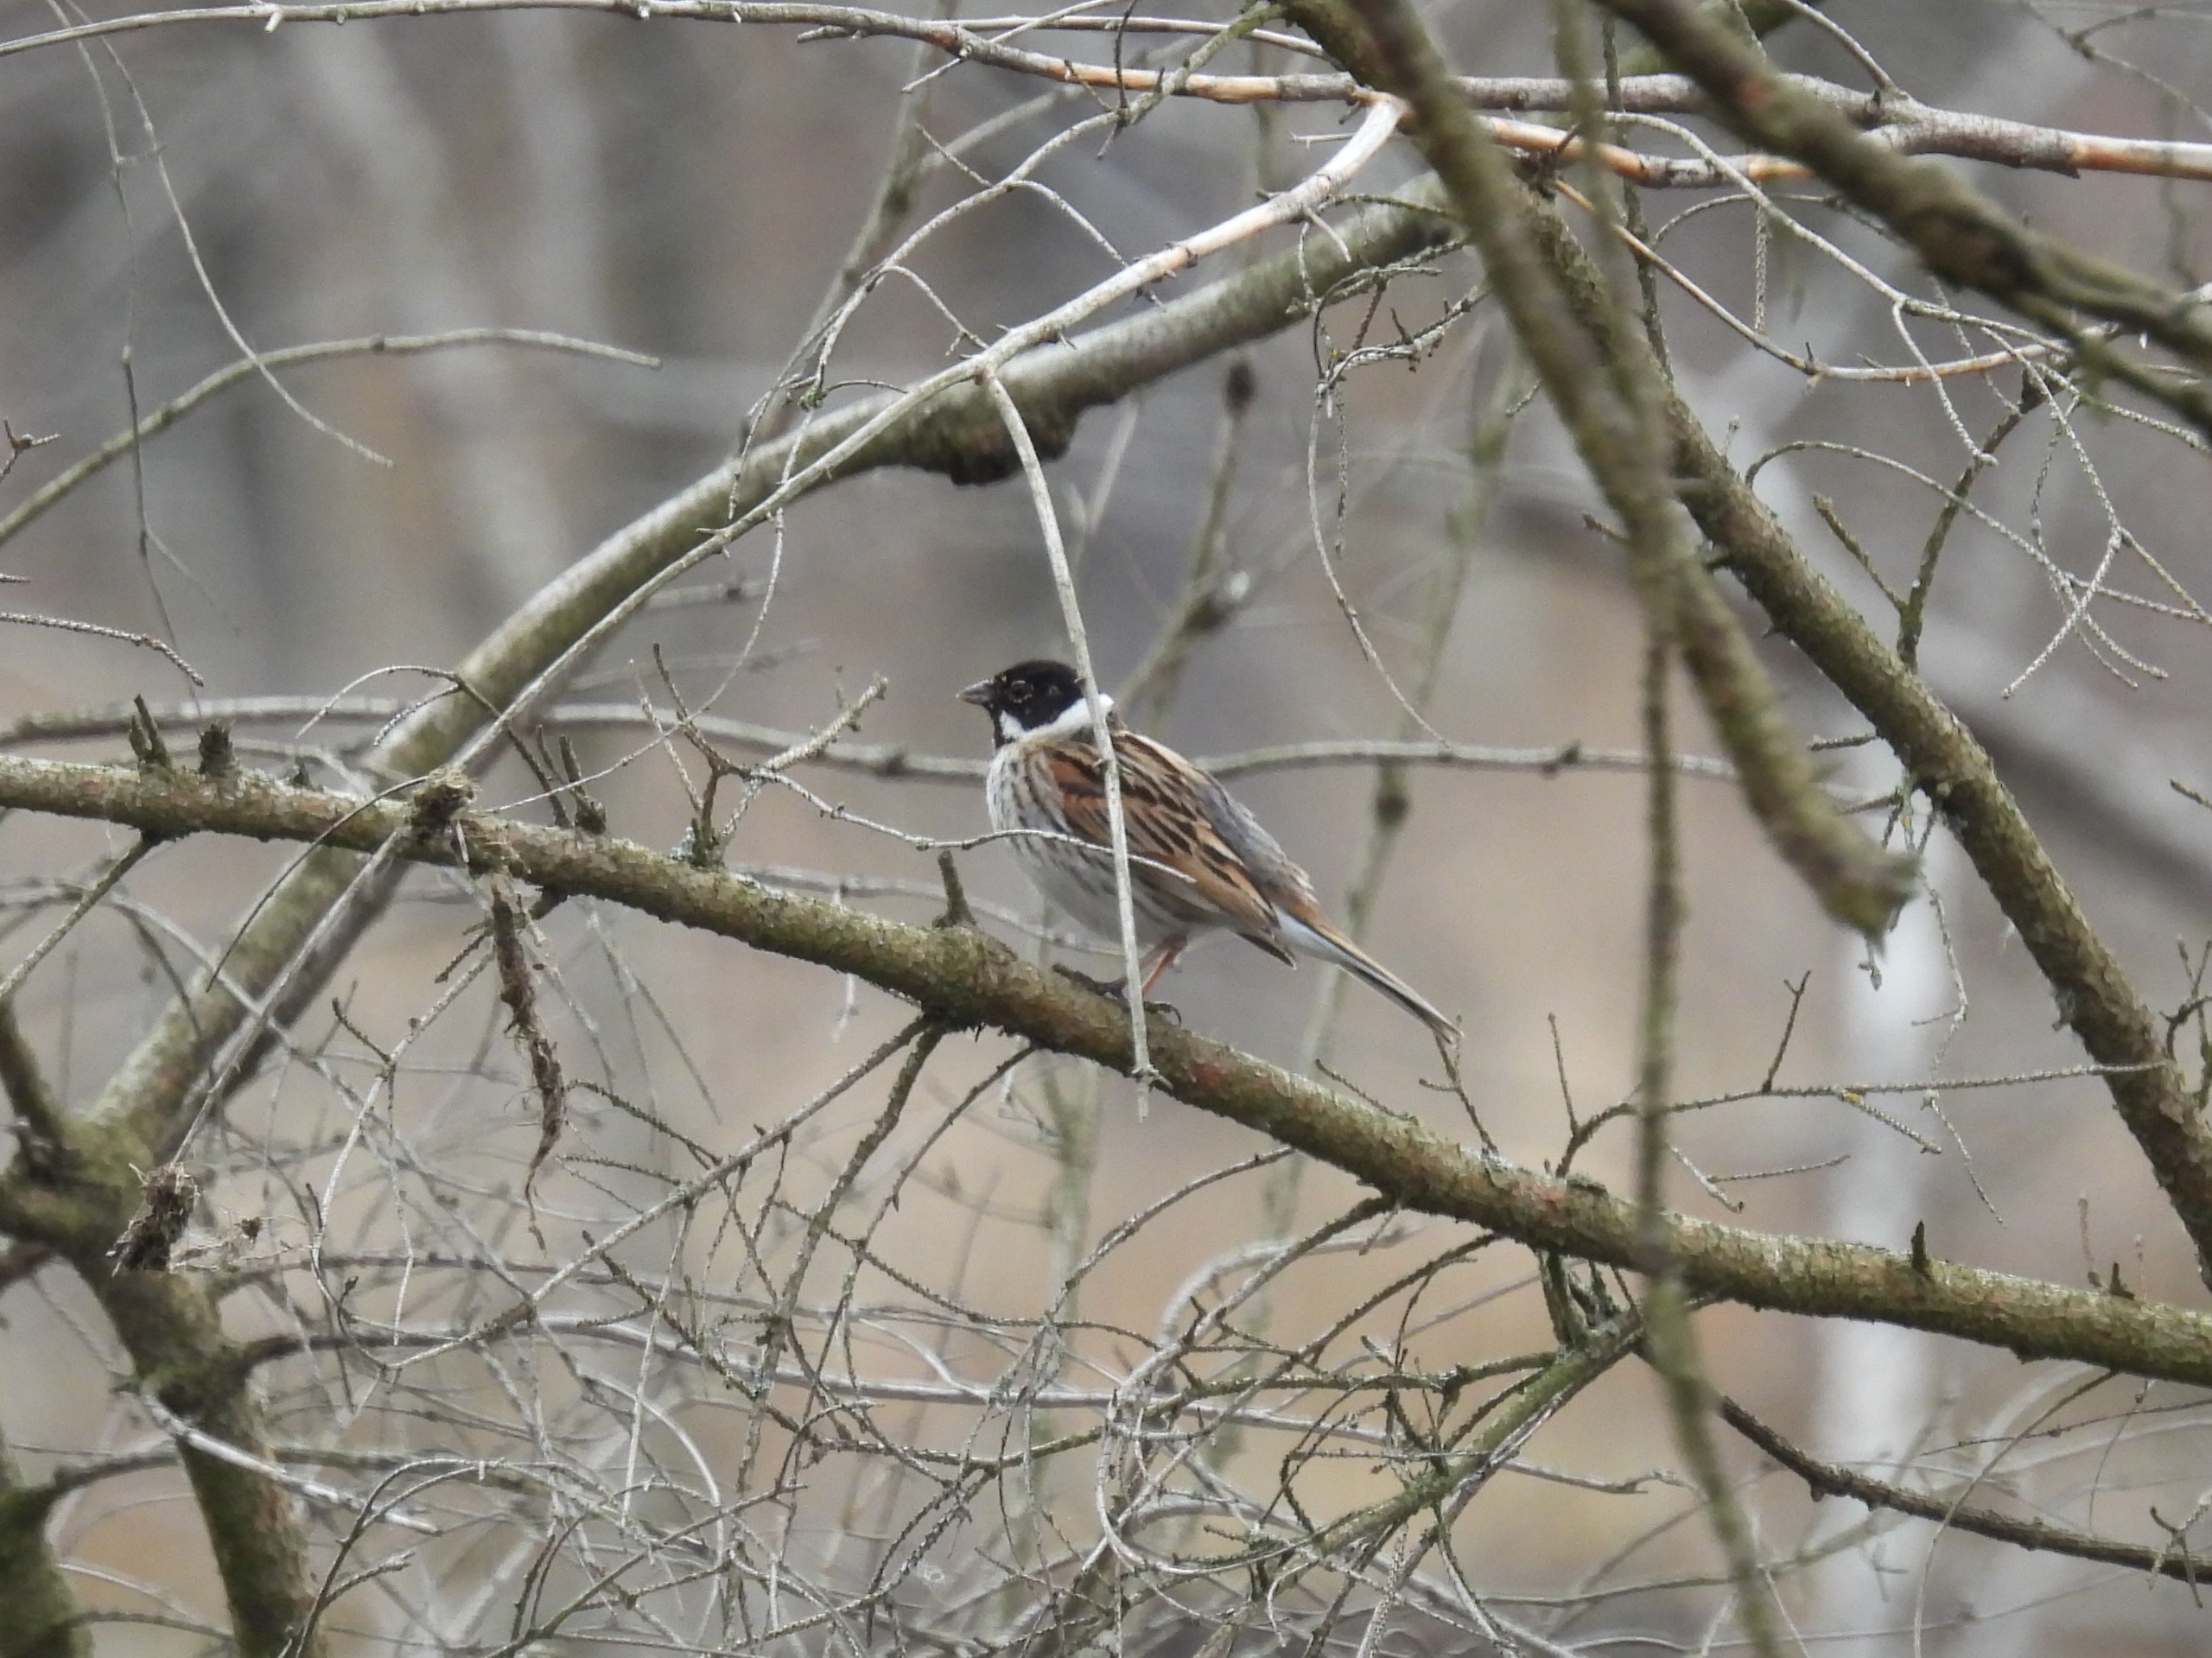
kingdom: Animalia
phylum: Chordata
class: Aves
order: Passeriformes
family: Emberizidae
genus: Emberiza
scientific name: Emberiza schoeniclus
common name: Rørspurv
